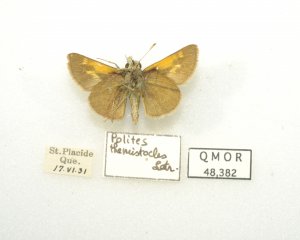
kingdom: Animalia
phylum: Arthropoda
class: Insecta
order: Lepidoptera
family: Hesperiidae
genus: Polites
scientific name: Polites themistocles
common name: Tawny-edged Skipper
